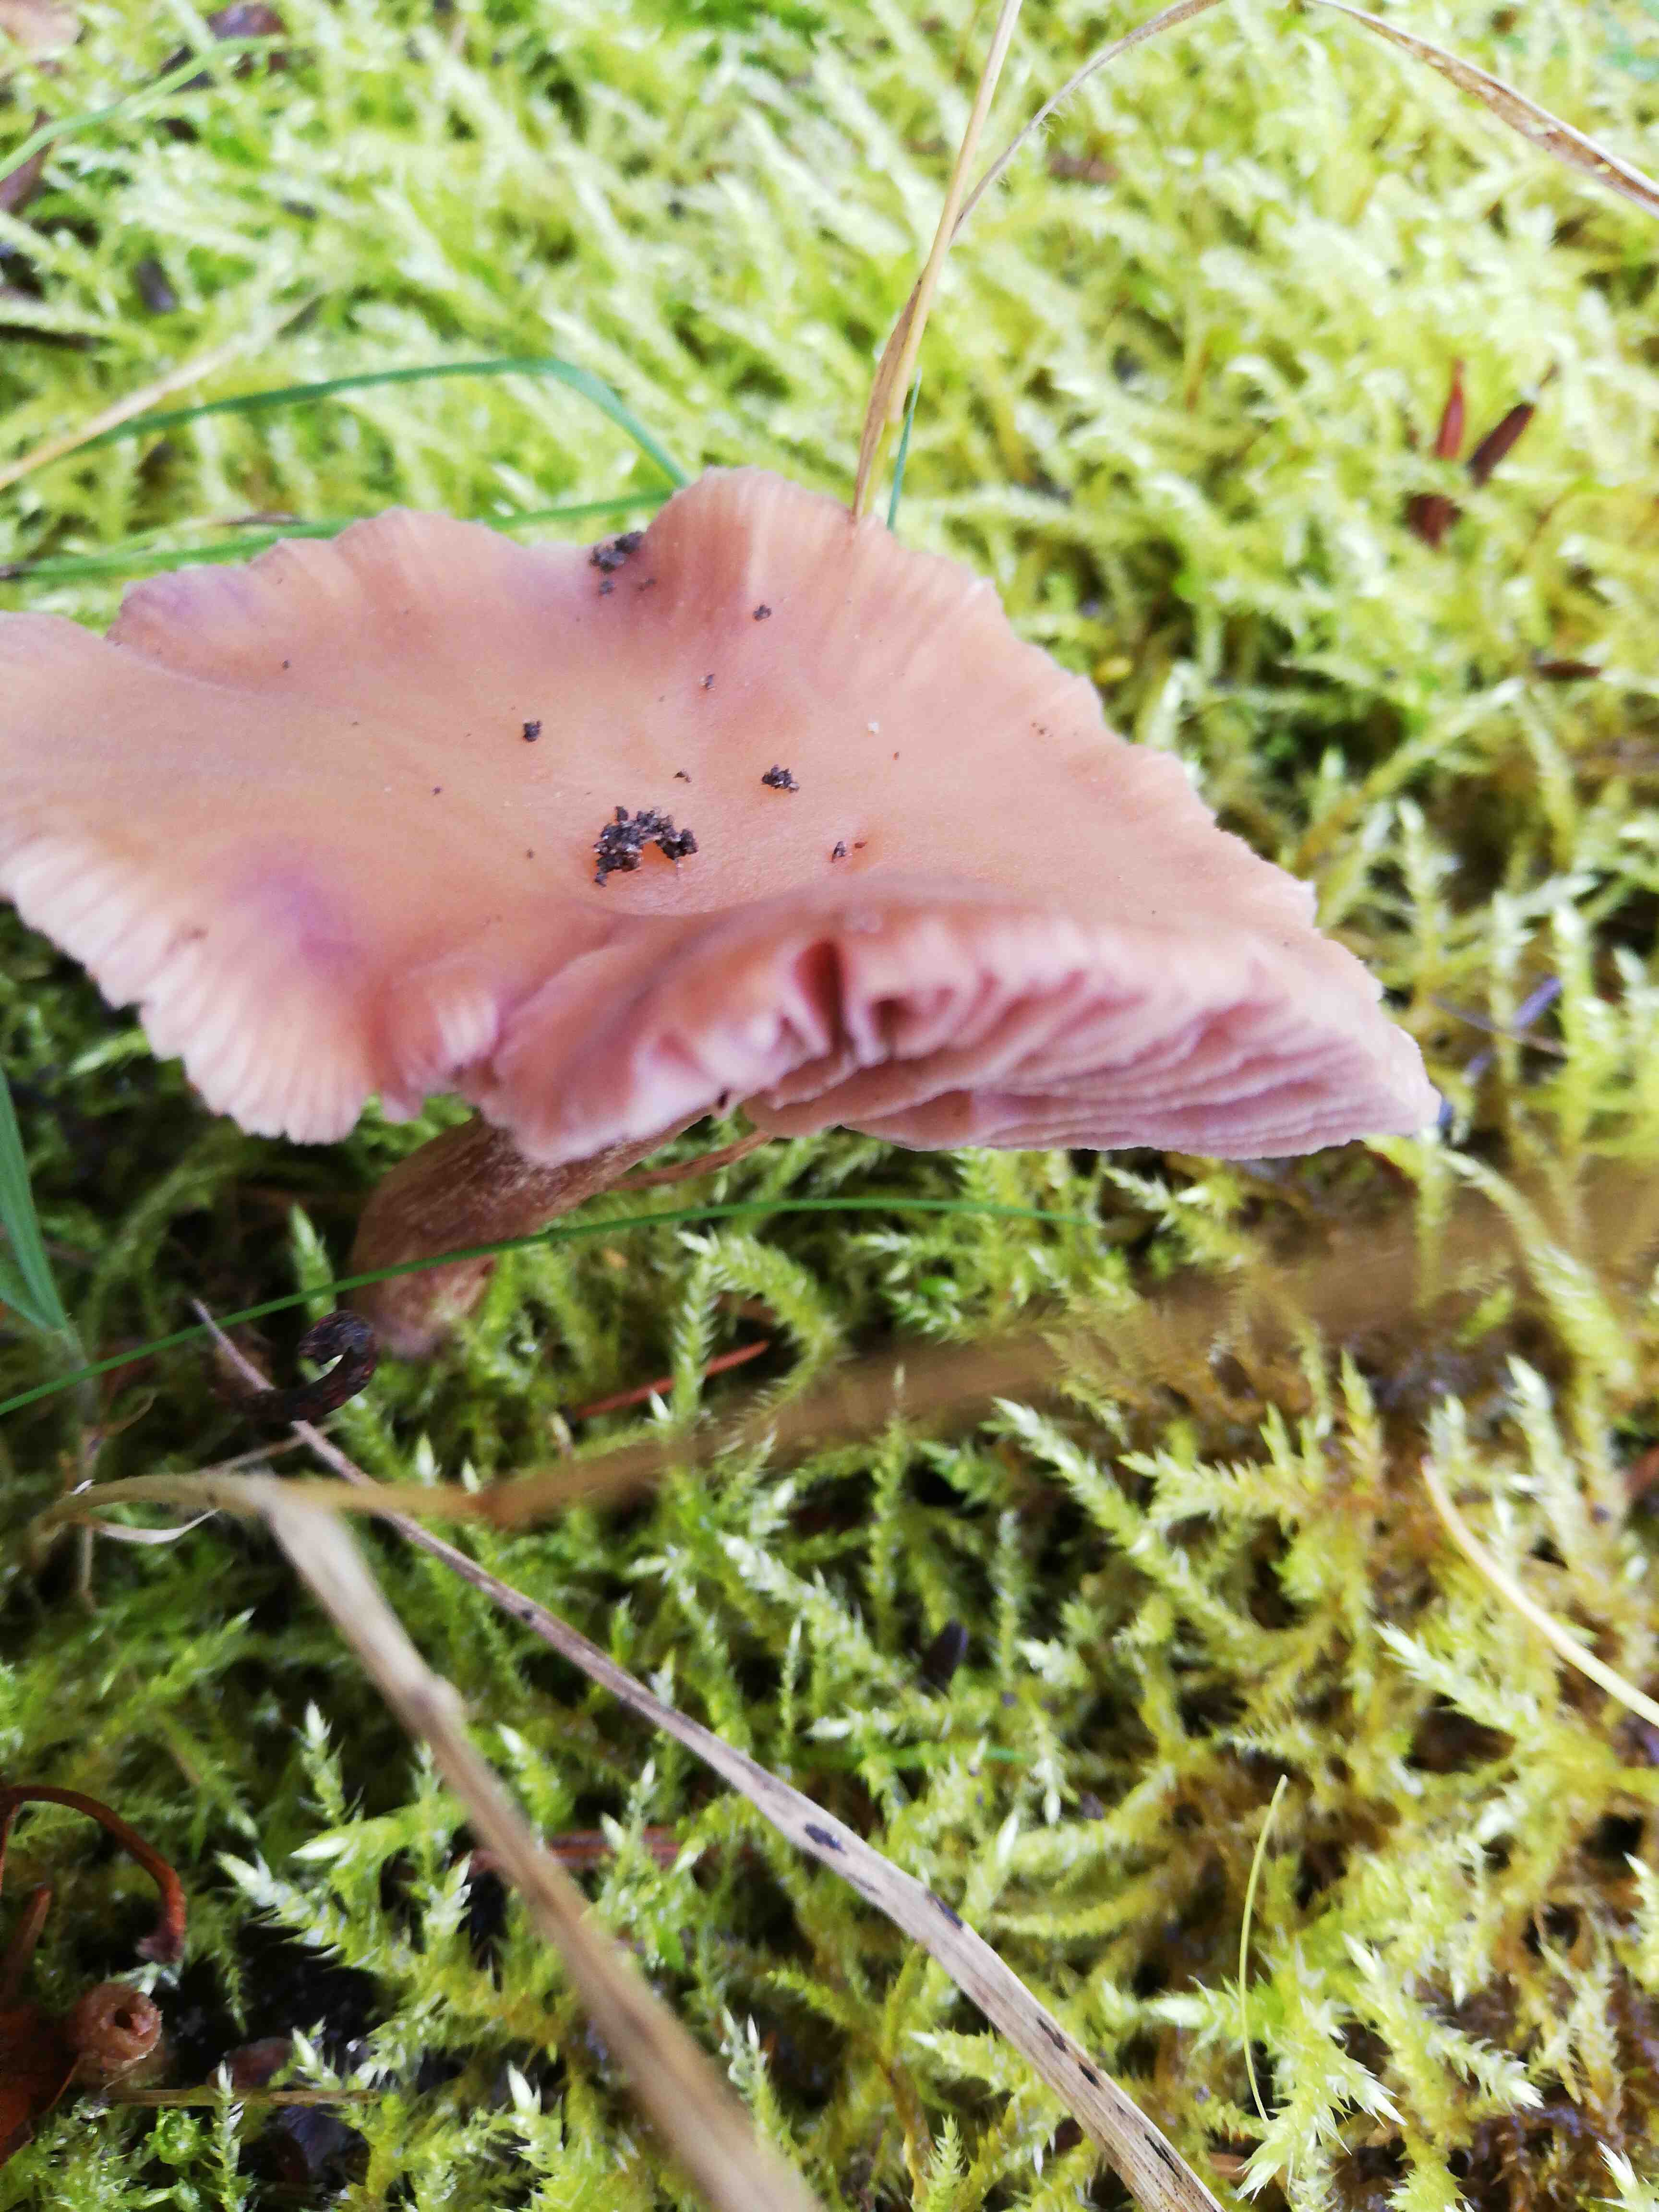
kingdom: Fungi
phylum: Basidiomycota
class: Agaricomycetes
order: Agaricales
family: Hydnangiaceae
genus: Laccaria
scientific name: Laccaria amethystina
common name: violet ametysthat
